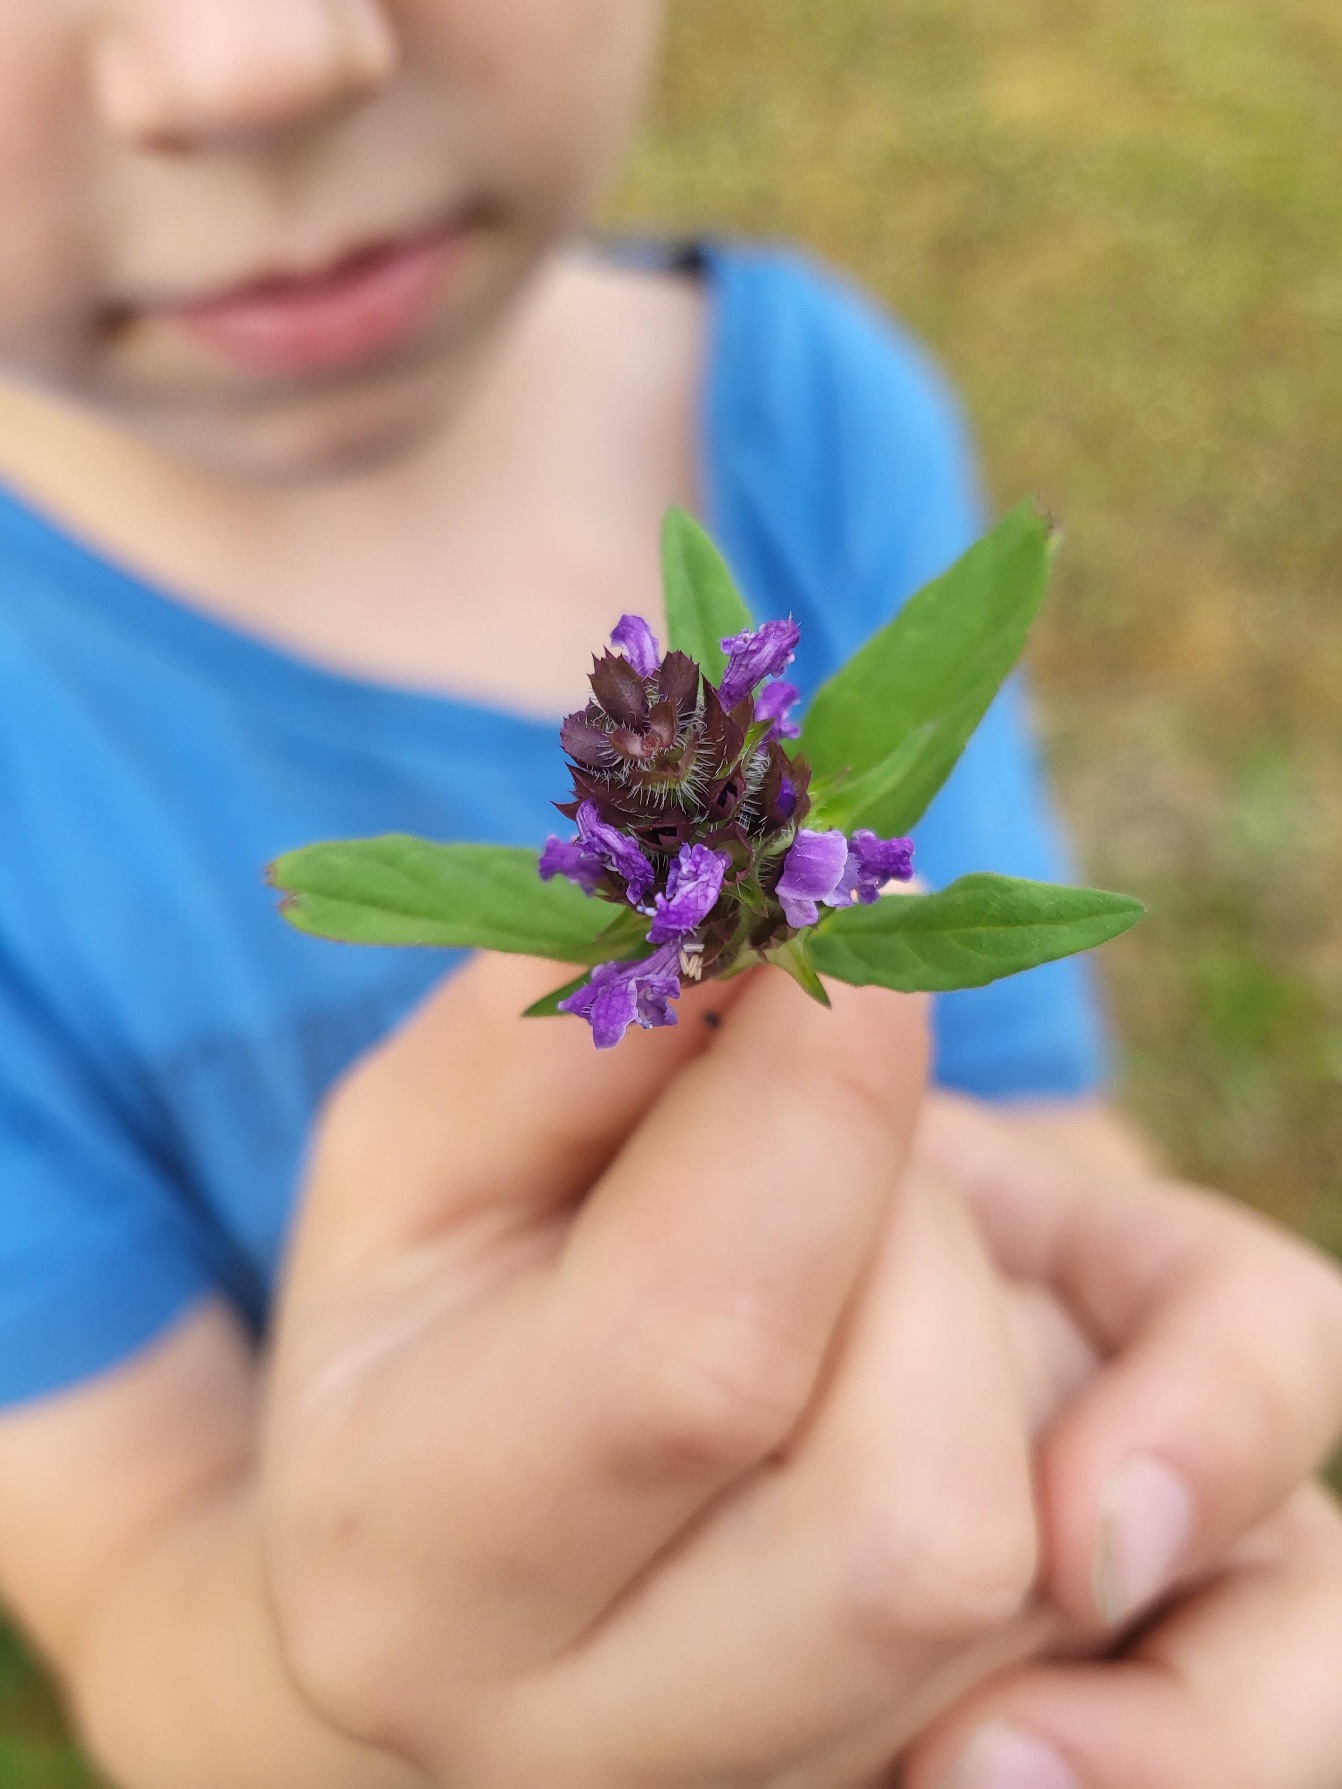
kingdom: Plantae
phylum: Tracheophyta
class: Magnoliopsida
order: Lamiales
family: Lamiaceae
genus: Prunella
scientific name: Prunella vulgaris
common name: Almindelig brunelle
